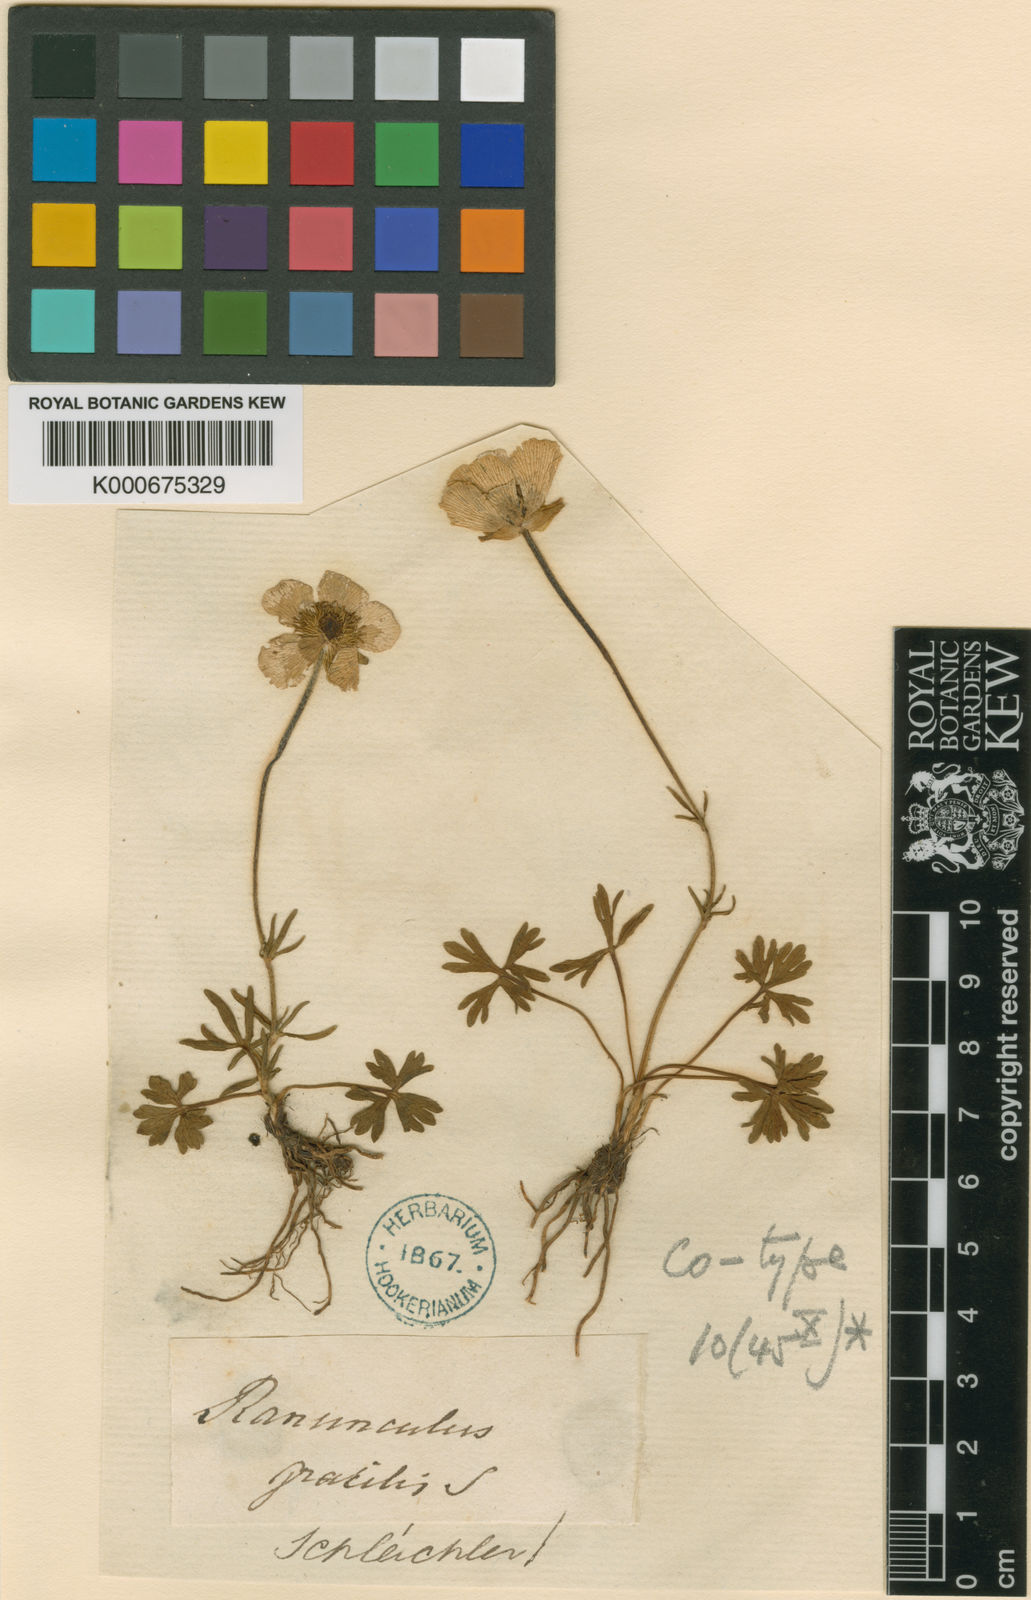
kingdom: Plantae
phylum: Tracheophyta
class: Magnoliopsida
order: Ranunculales
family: Ranunculaceae
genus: Ranunculus
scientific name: Ranunculus carinthiacus
